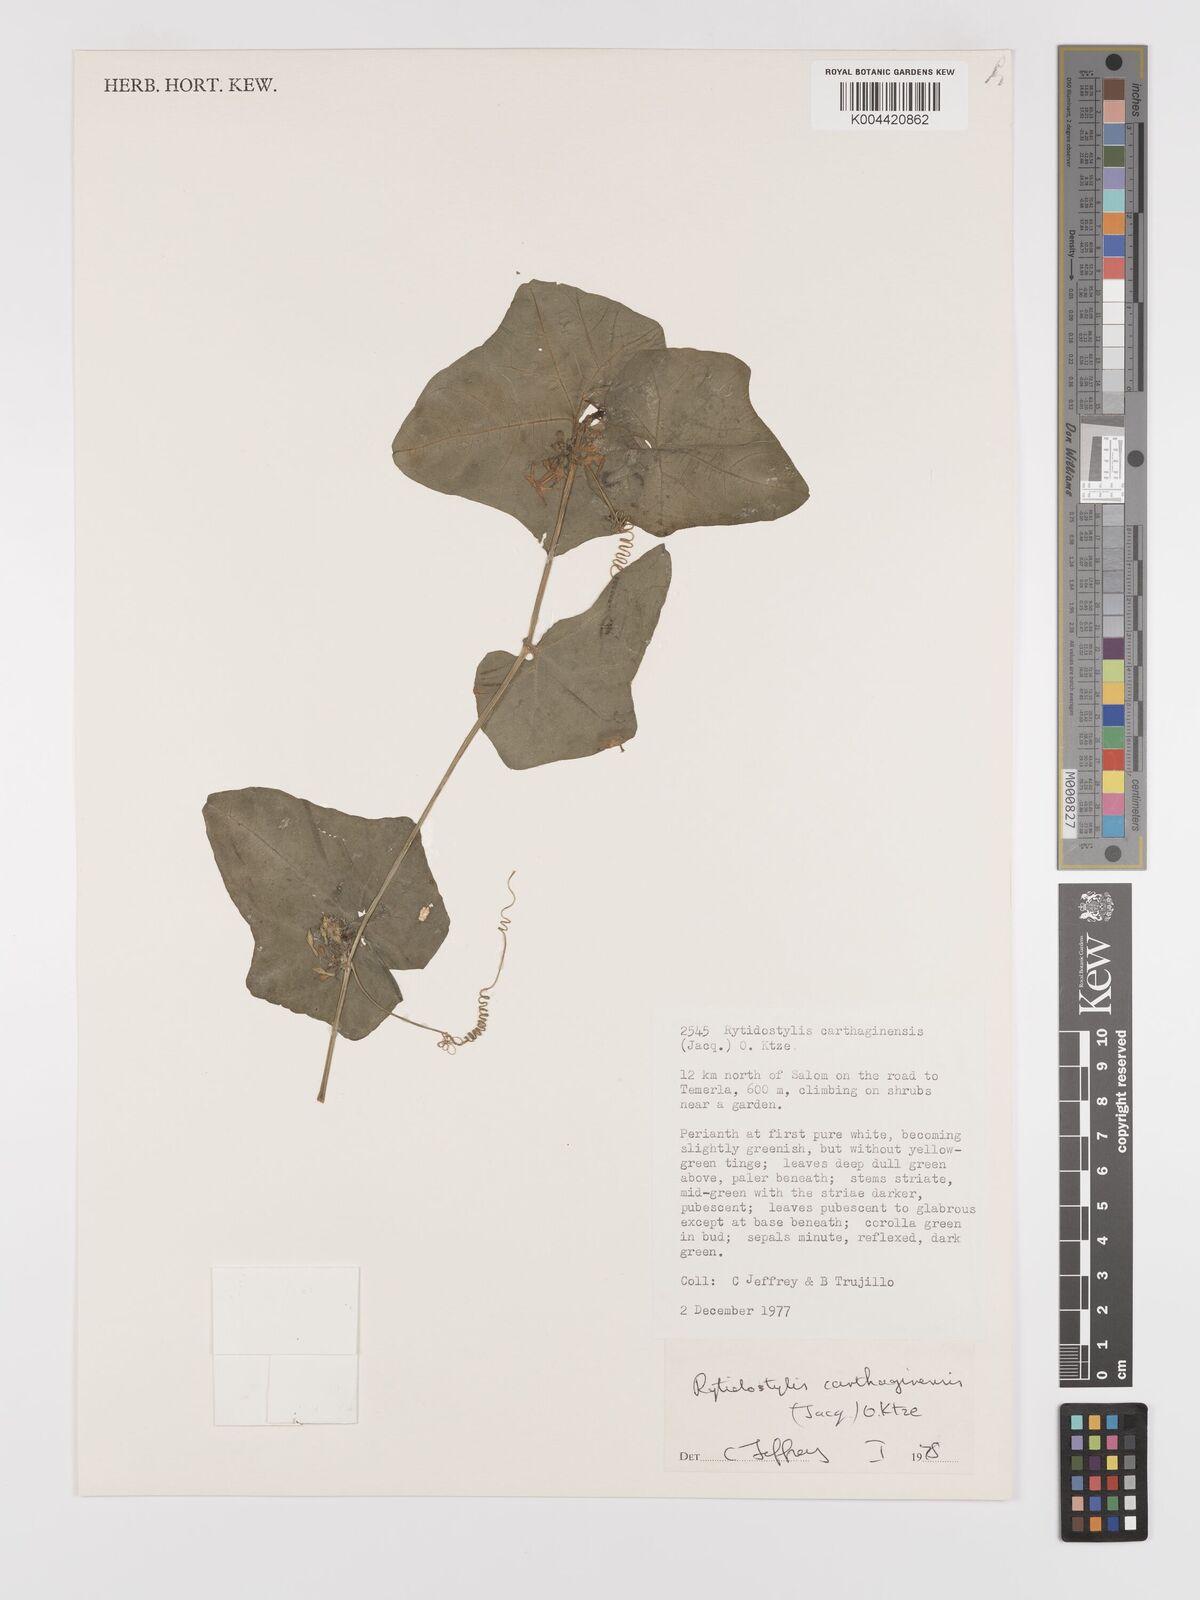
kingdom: Plantae
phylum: Tracheophyta
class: Magnoliopsida
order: Cucurbitales
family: Cucurbitaceae
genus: Cyclanthera
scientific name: Cyclanthera carthagenensis
